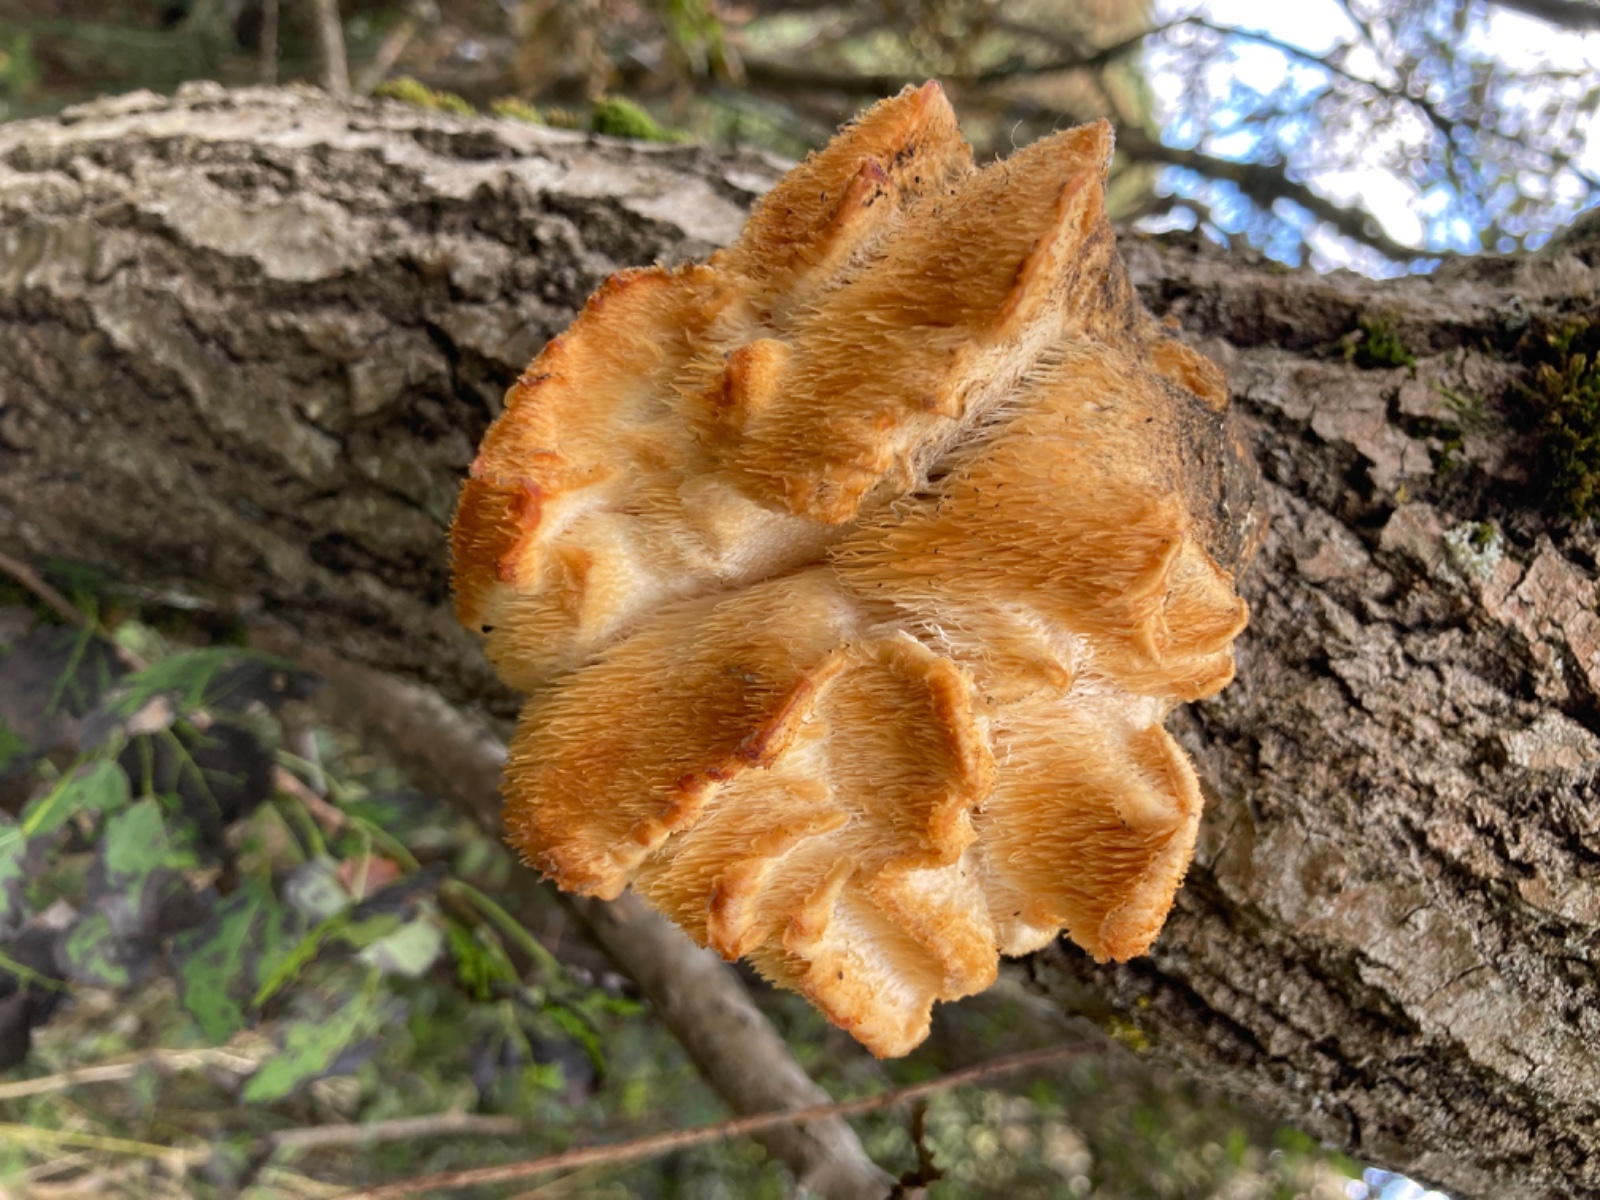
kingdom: Fungi
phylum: Basidiomycota
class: Agaricomycetes
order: Russulales
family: Hericiaceae
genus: Hericium
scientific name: Hericium cirrhatum
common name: børstepigsvamp
